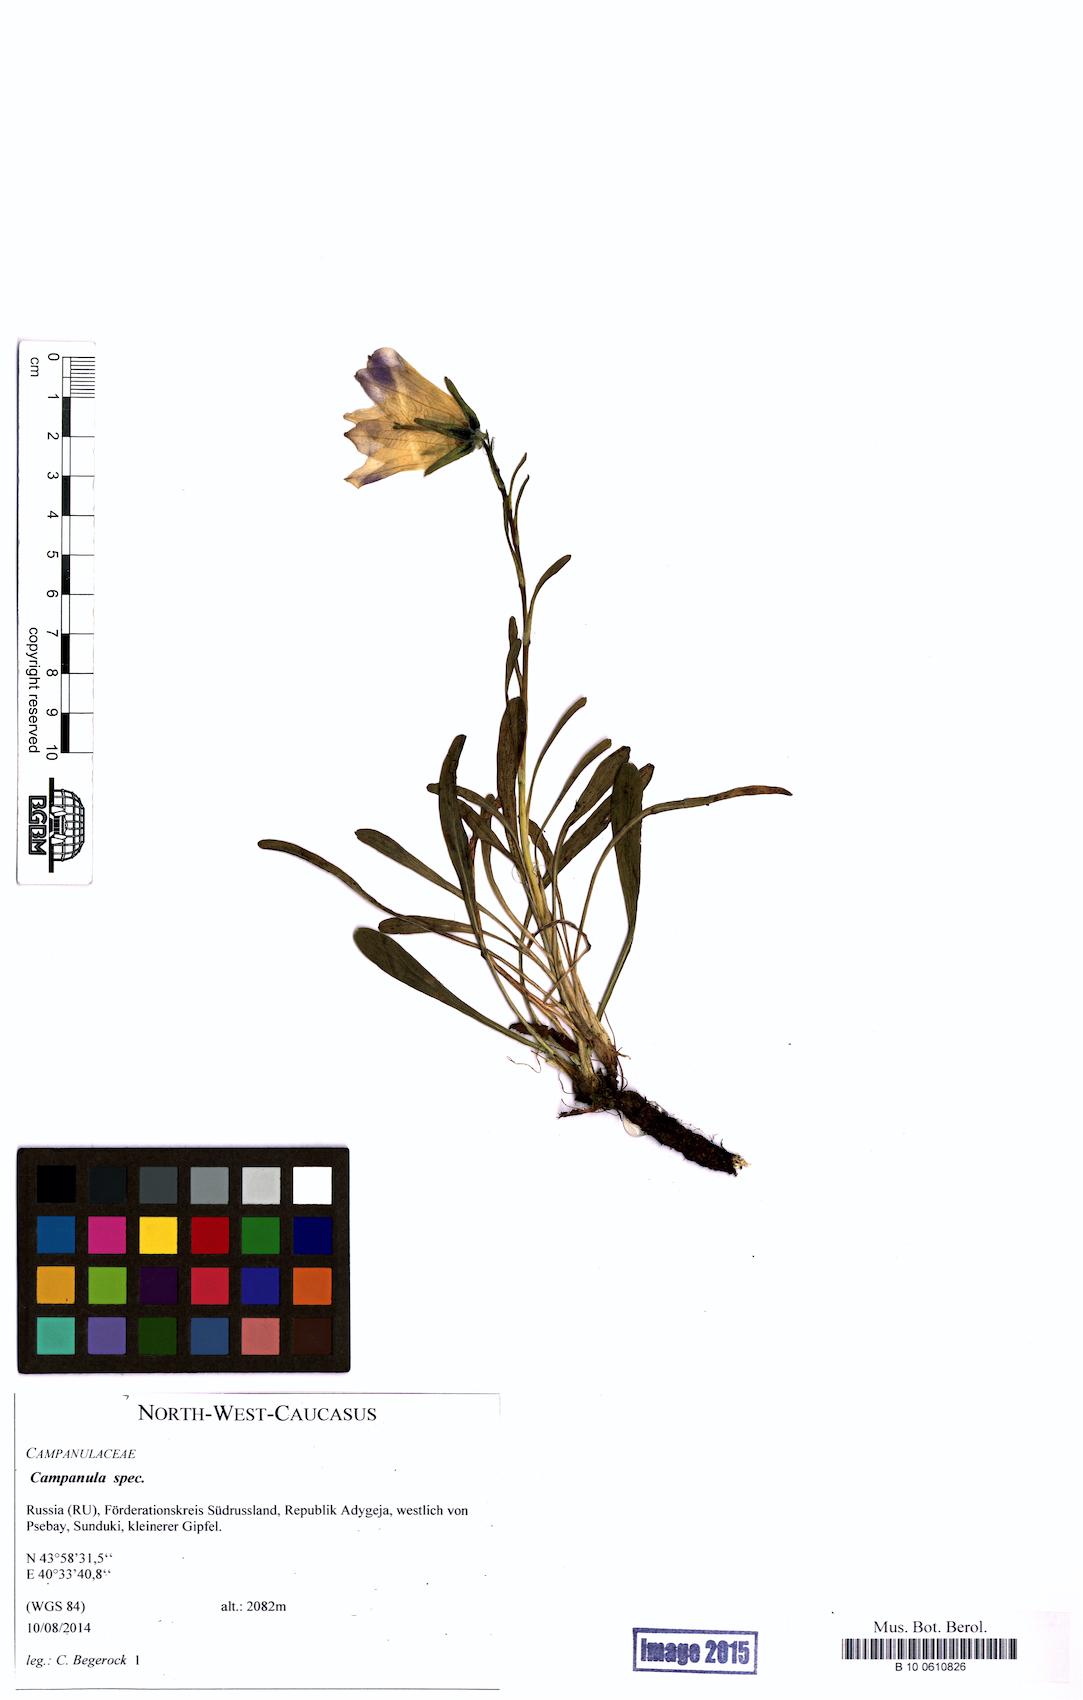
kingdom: Plantae
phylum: Tracheophyta
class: Magnoliopsida
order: Asterales
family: Campanulaceae
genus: Campanula
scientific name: Campanula
